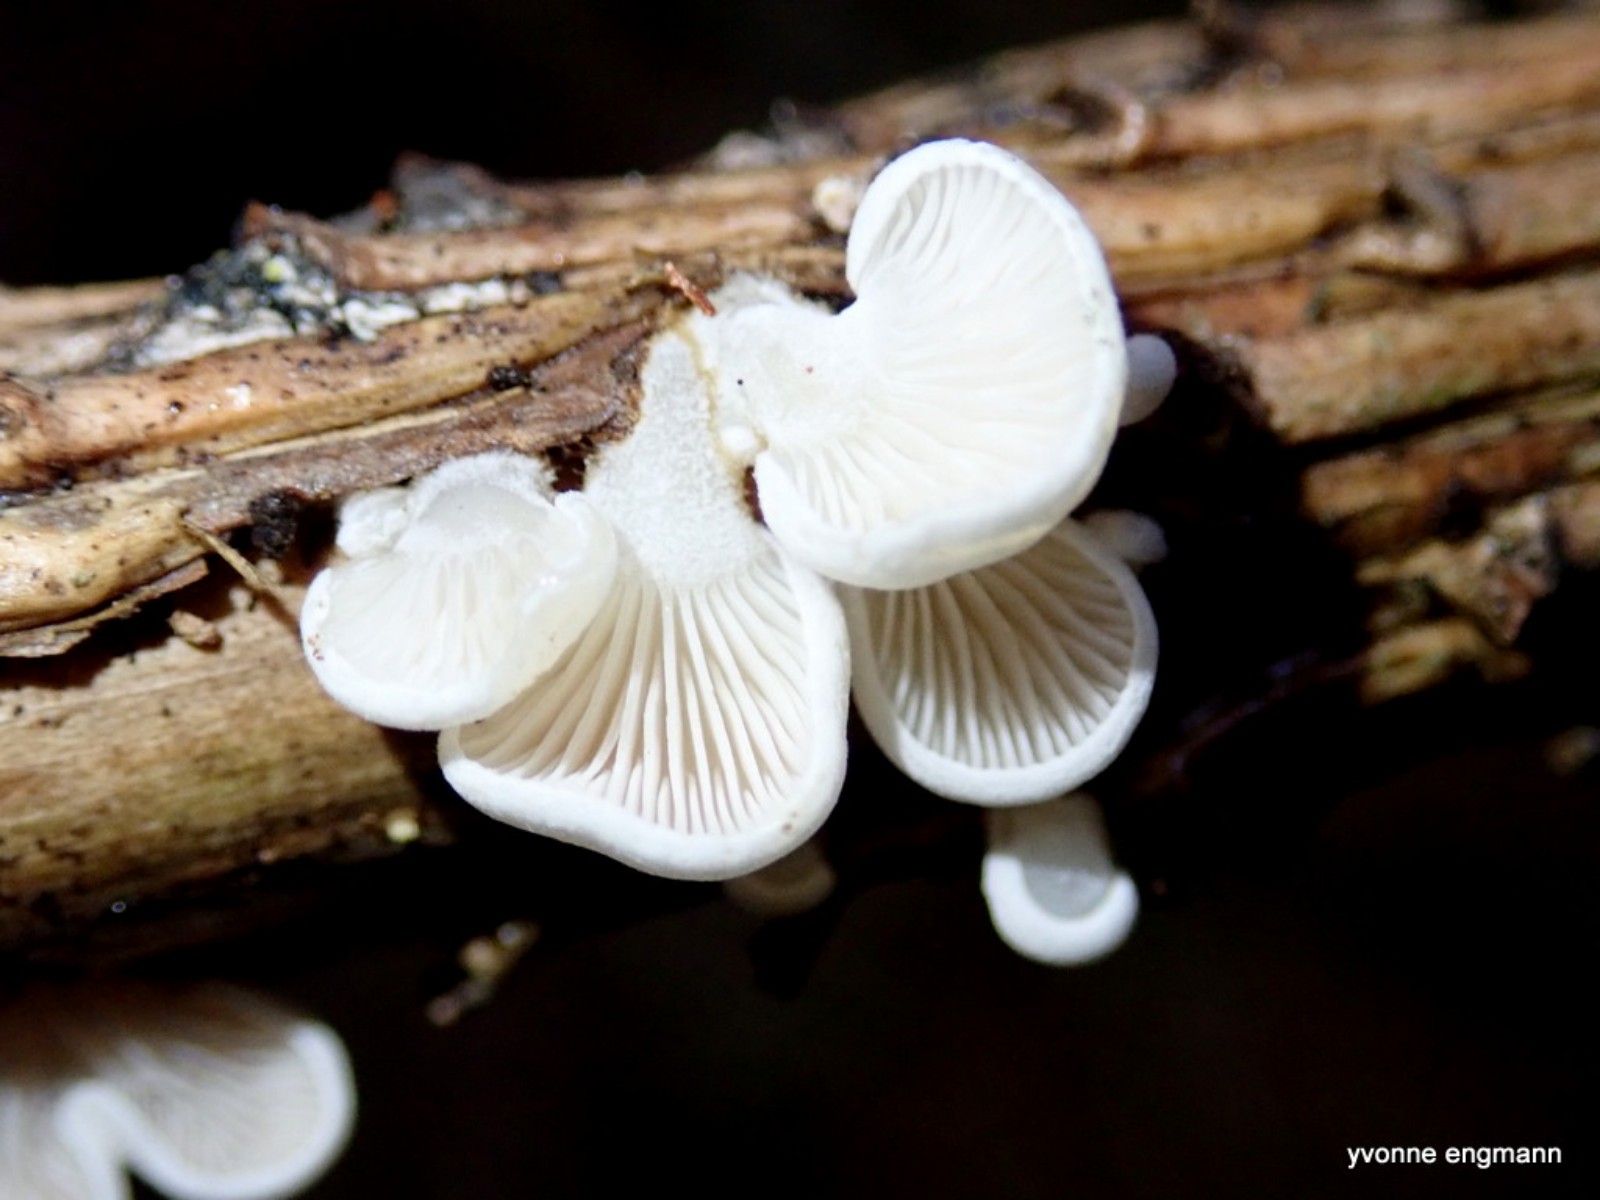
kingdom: Fungi
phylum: Basidiomycota
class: Agaricomycetes
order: Agaricales
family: Mycenaceae
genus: Panellus
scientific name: Panellus mitis
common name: mild epaulethat
